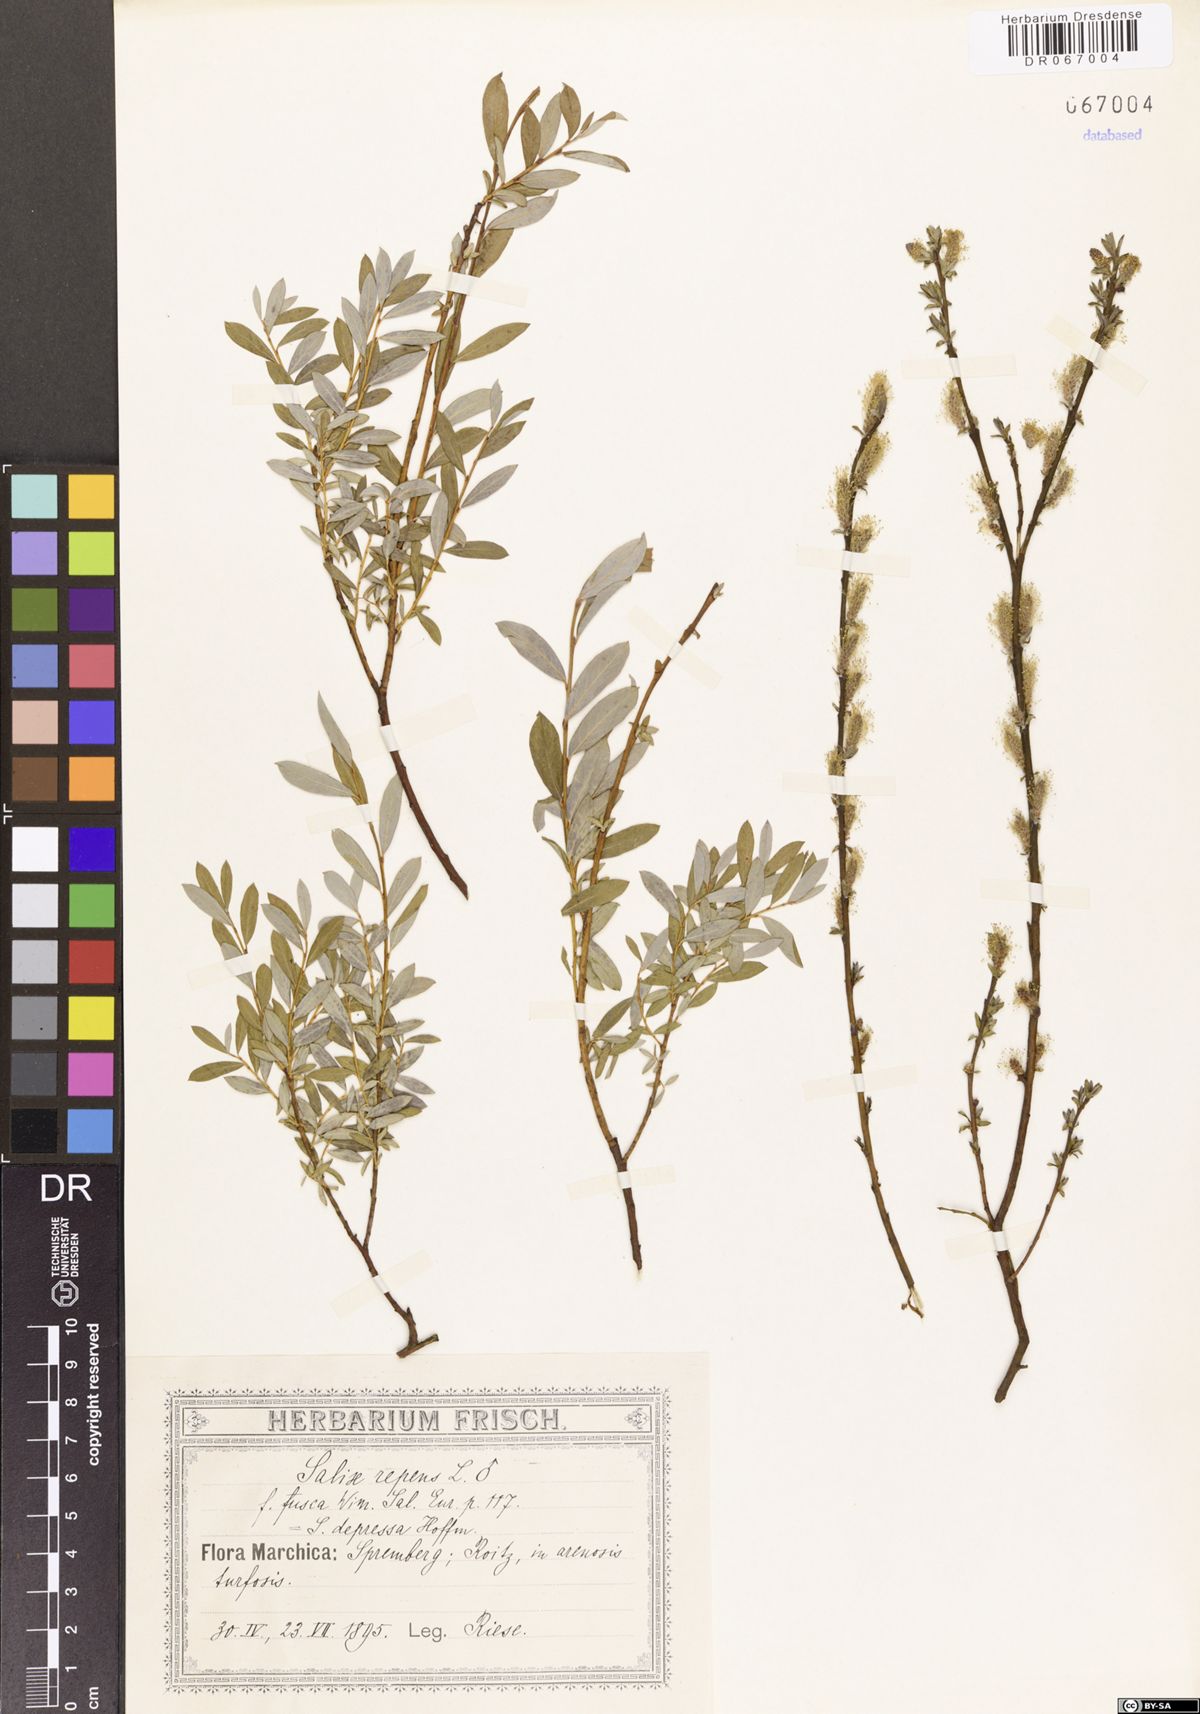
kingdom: Plantae
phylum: Tracheophyta
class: Magnoliopsida
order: Malpighiales
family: Salicaceae
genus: Salix
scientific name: Salix repens
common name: Creeping willow
